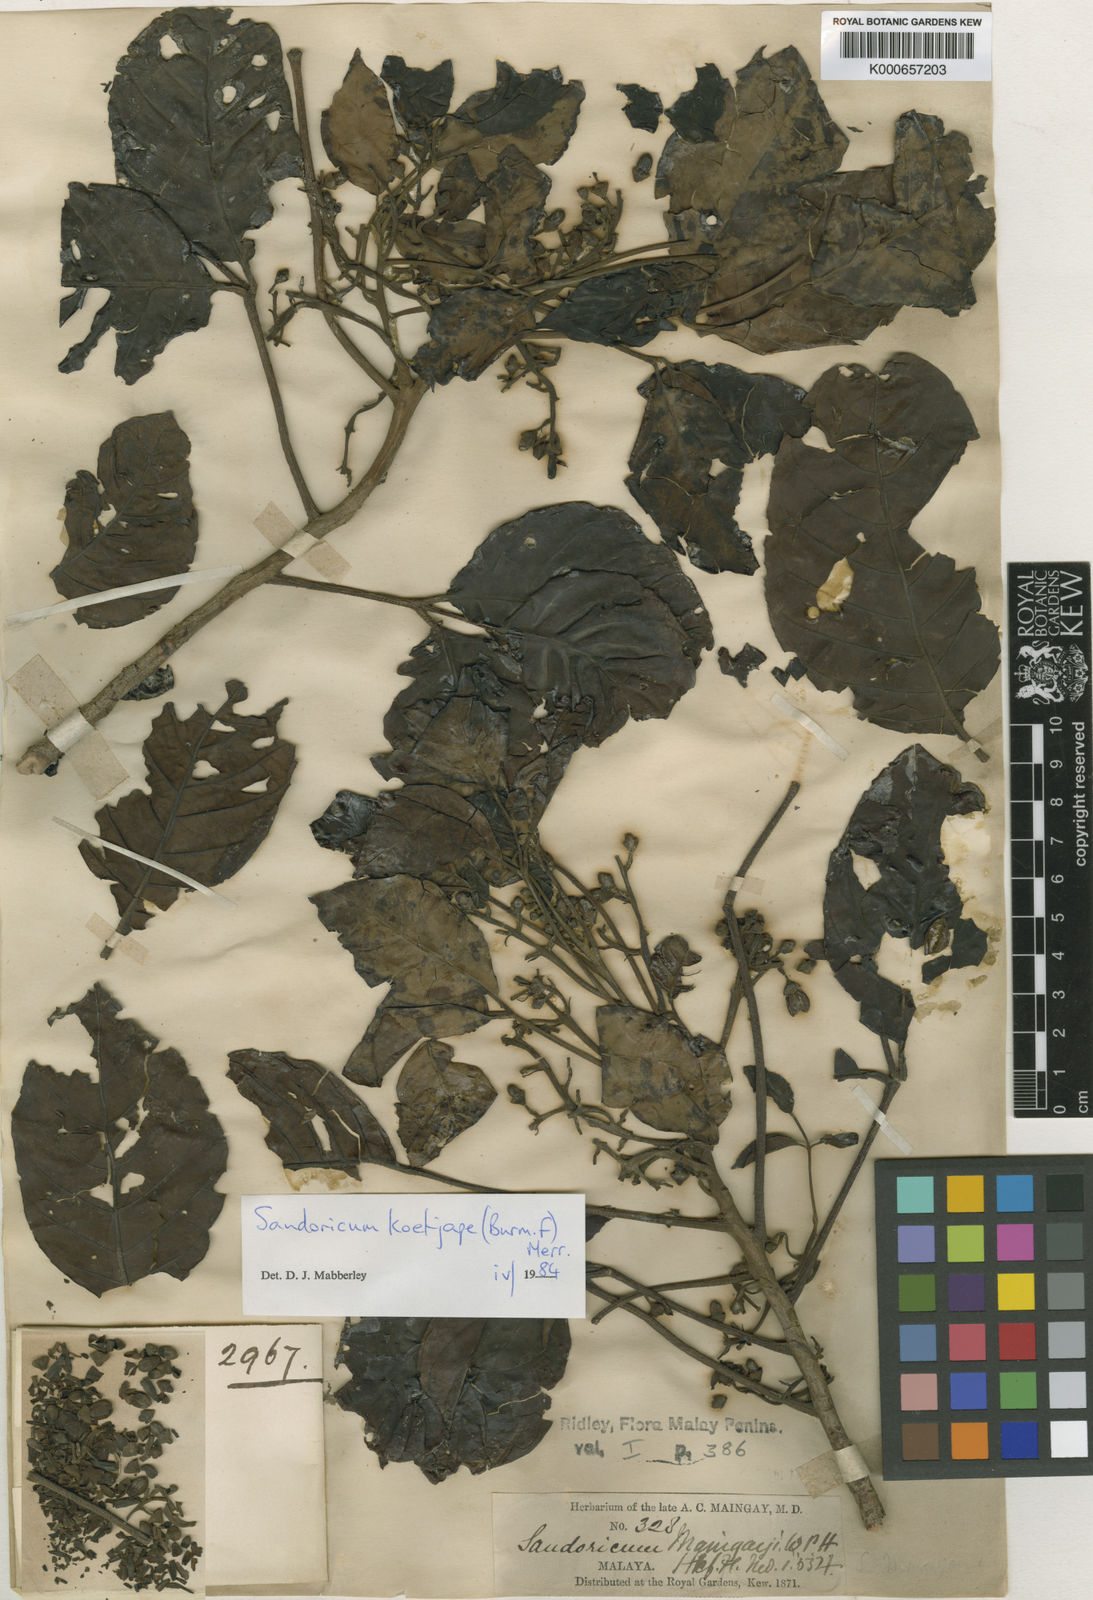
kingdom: Plantae
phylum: Tracheophyta
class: Magnoliopsida
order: Sapindales
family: Meliaceae
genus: Sandoricum
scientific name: Sandoricum koetjape
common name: Santol
